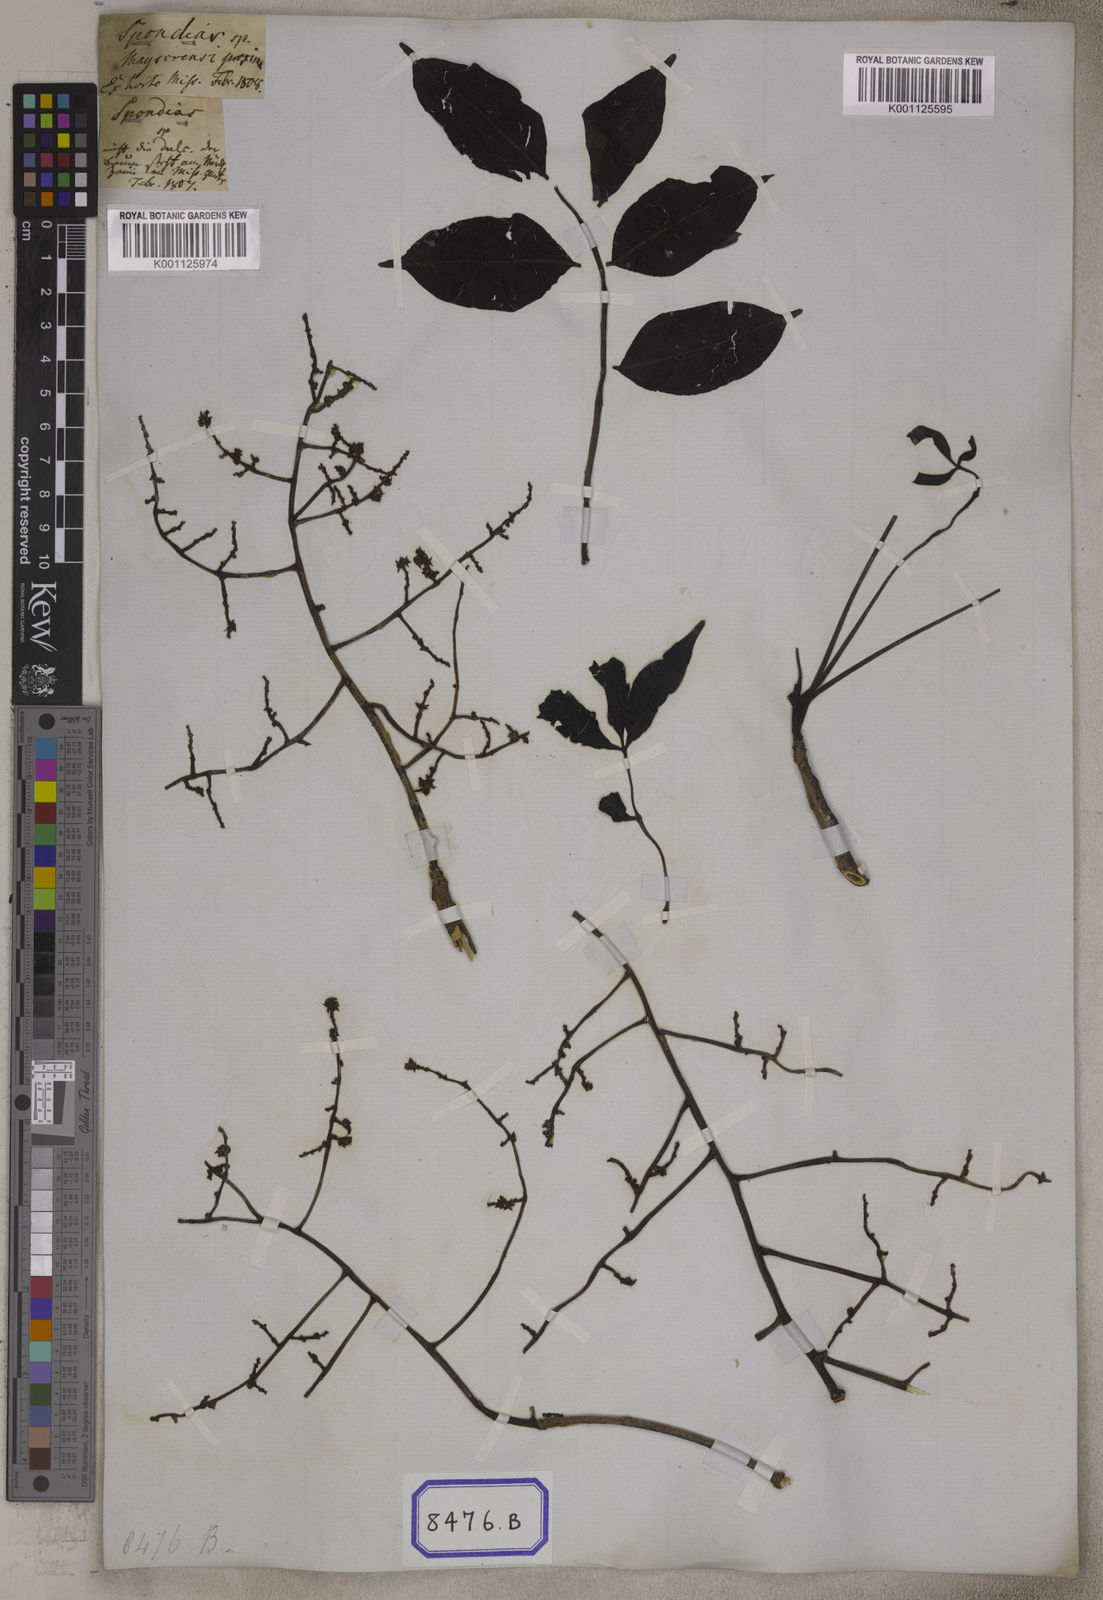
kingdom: Plantae
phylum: Tracheophyta
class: Magnoliopsida
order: Sapindales
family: Anacardiaceae
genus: Spondias
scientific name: Spondias
